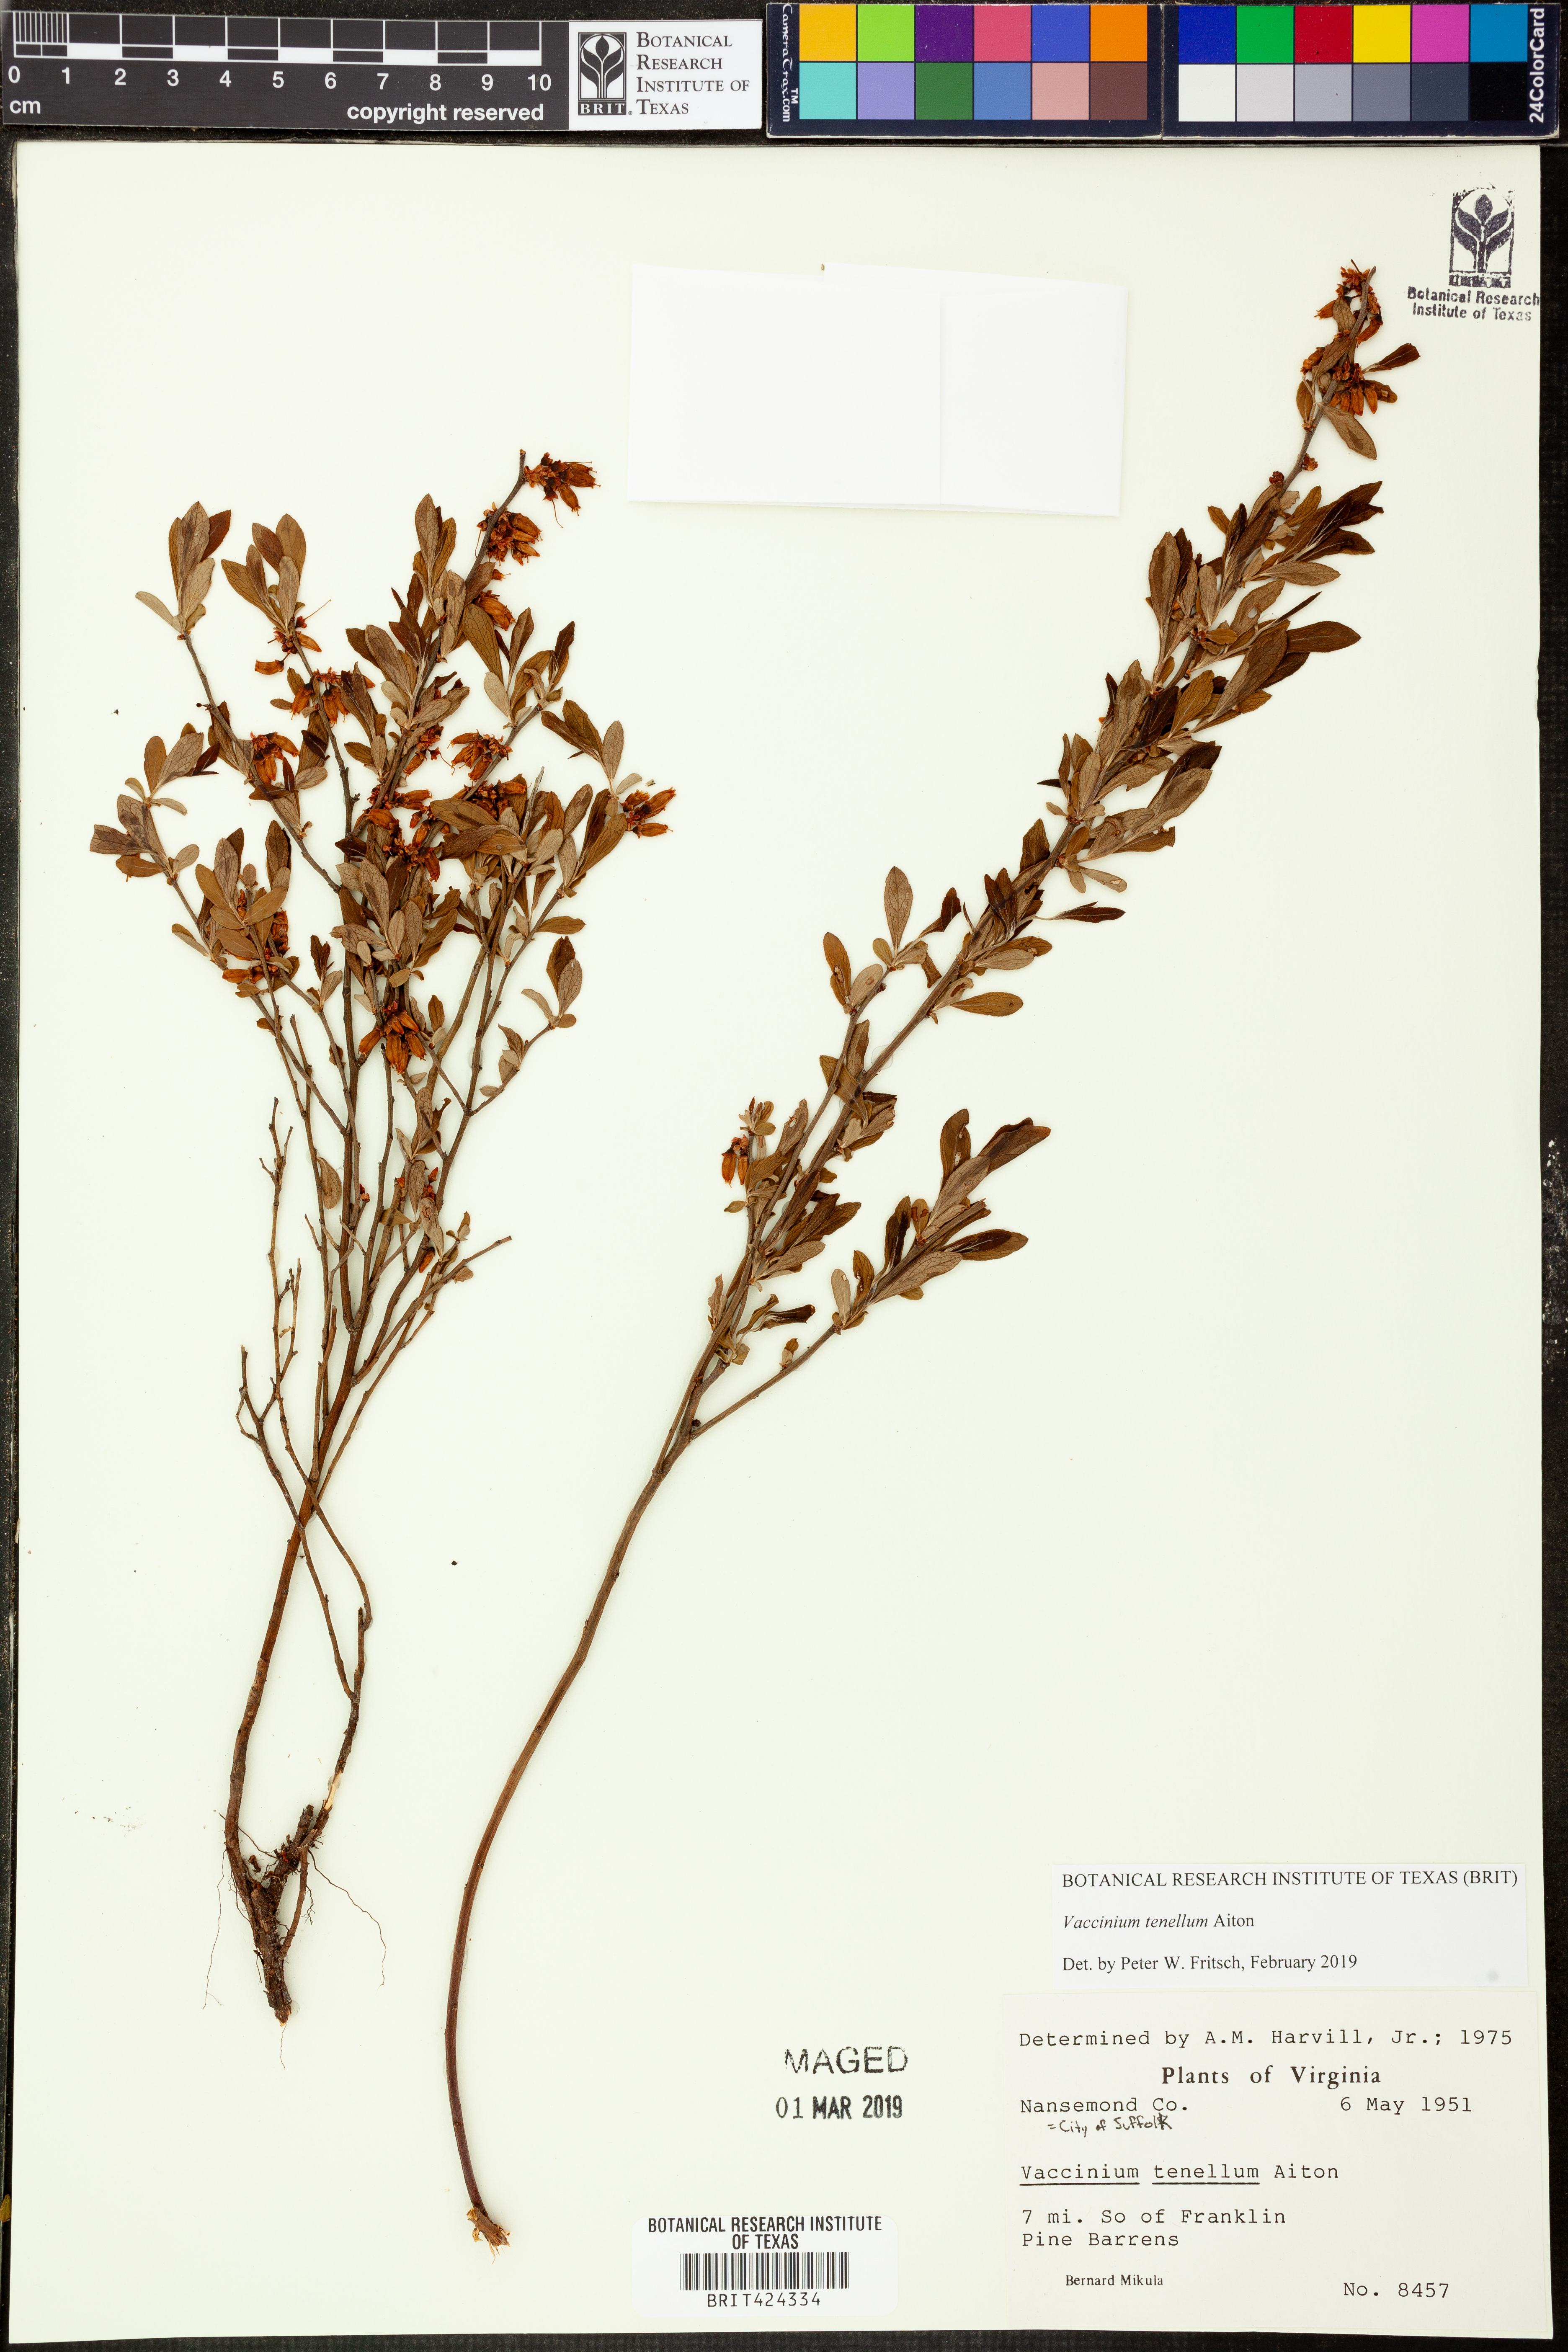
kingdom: Plantae
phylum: Tracheophyta
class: Magnoliopsida
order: Ericales
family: Ericaceae
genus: Vaccinium
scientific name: Vaccinium tenellum
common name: Southern blueberry
